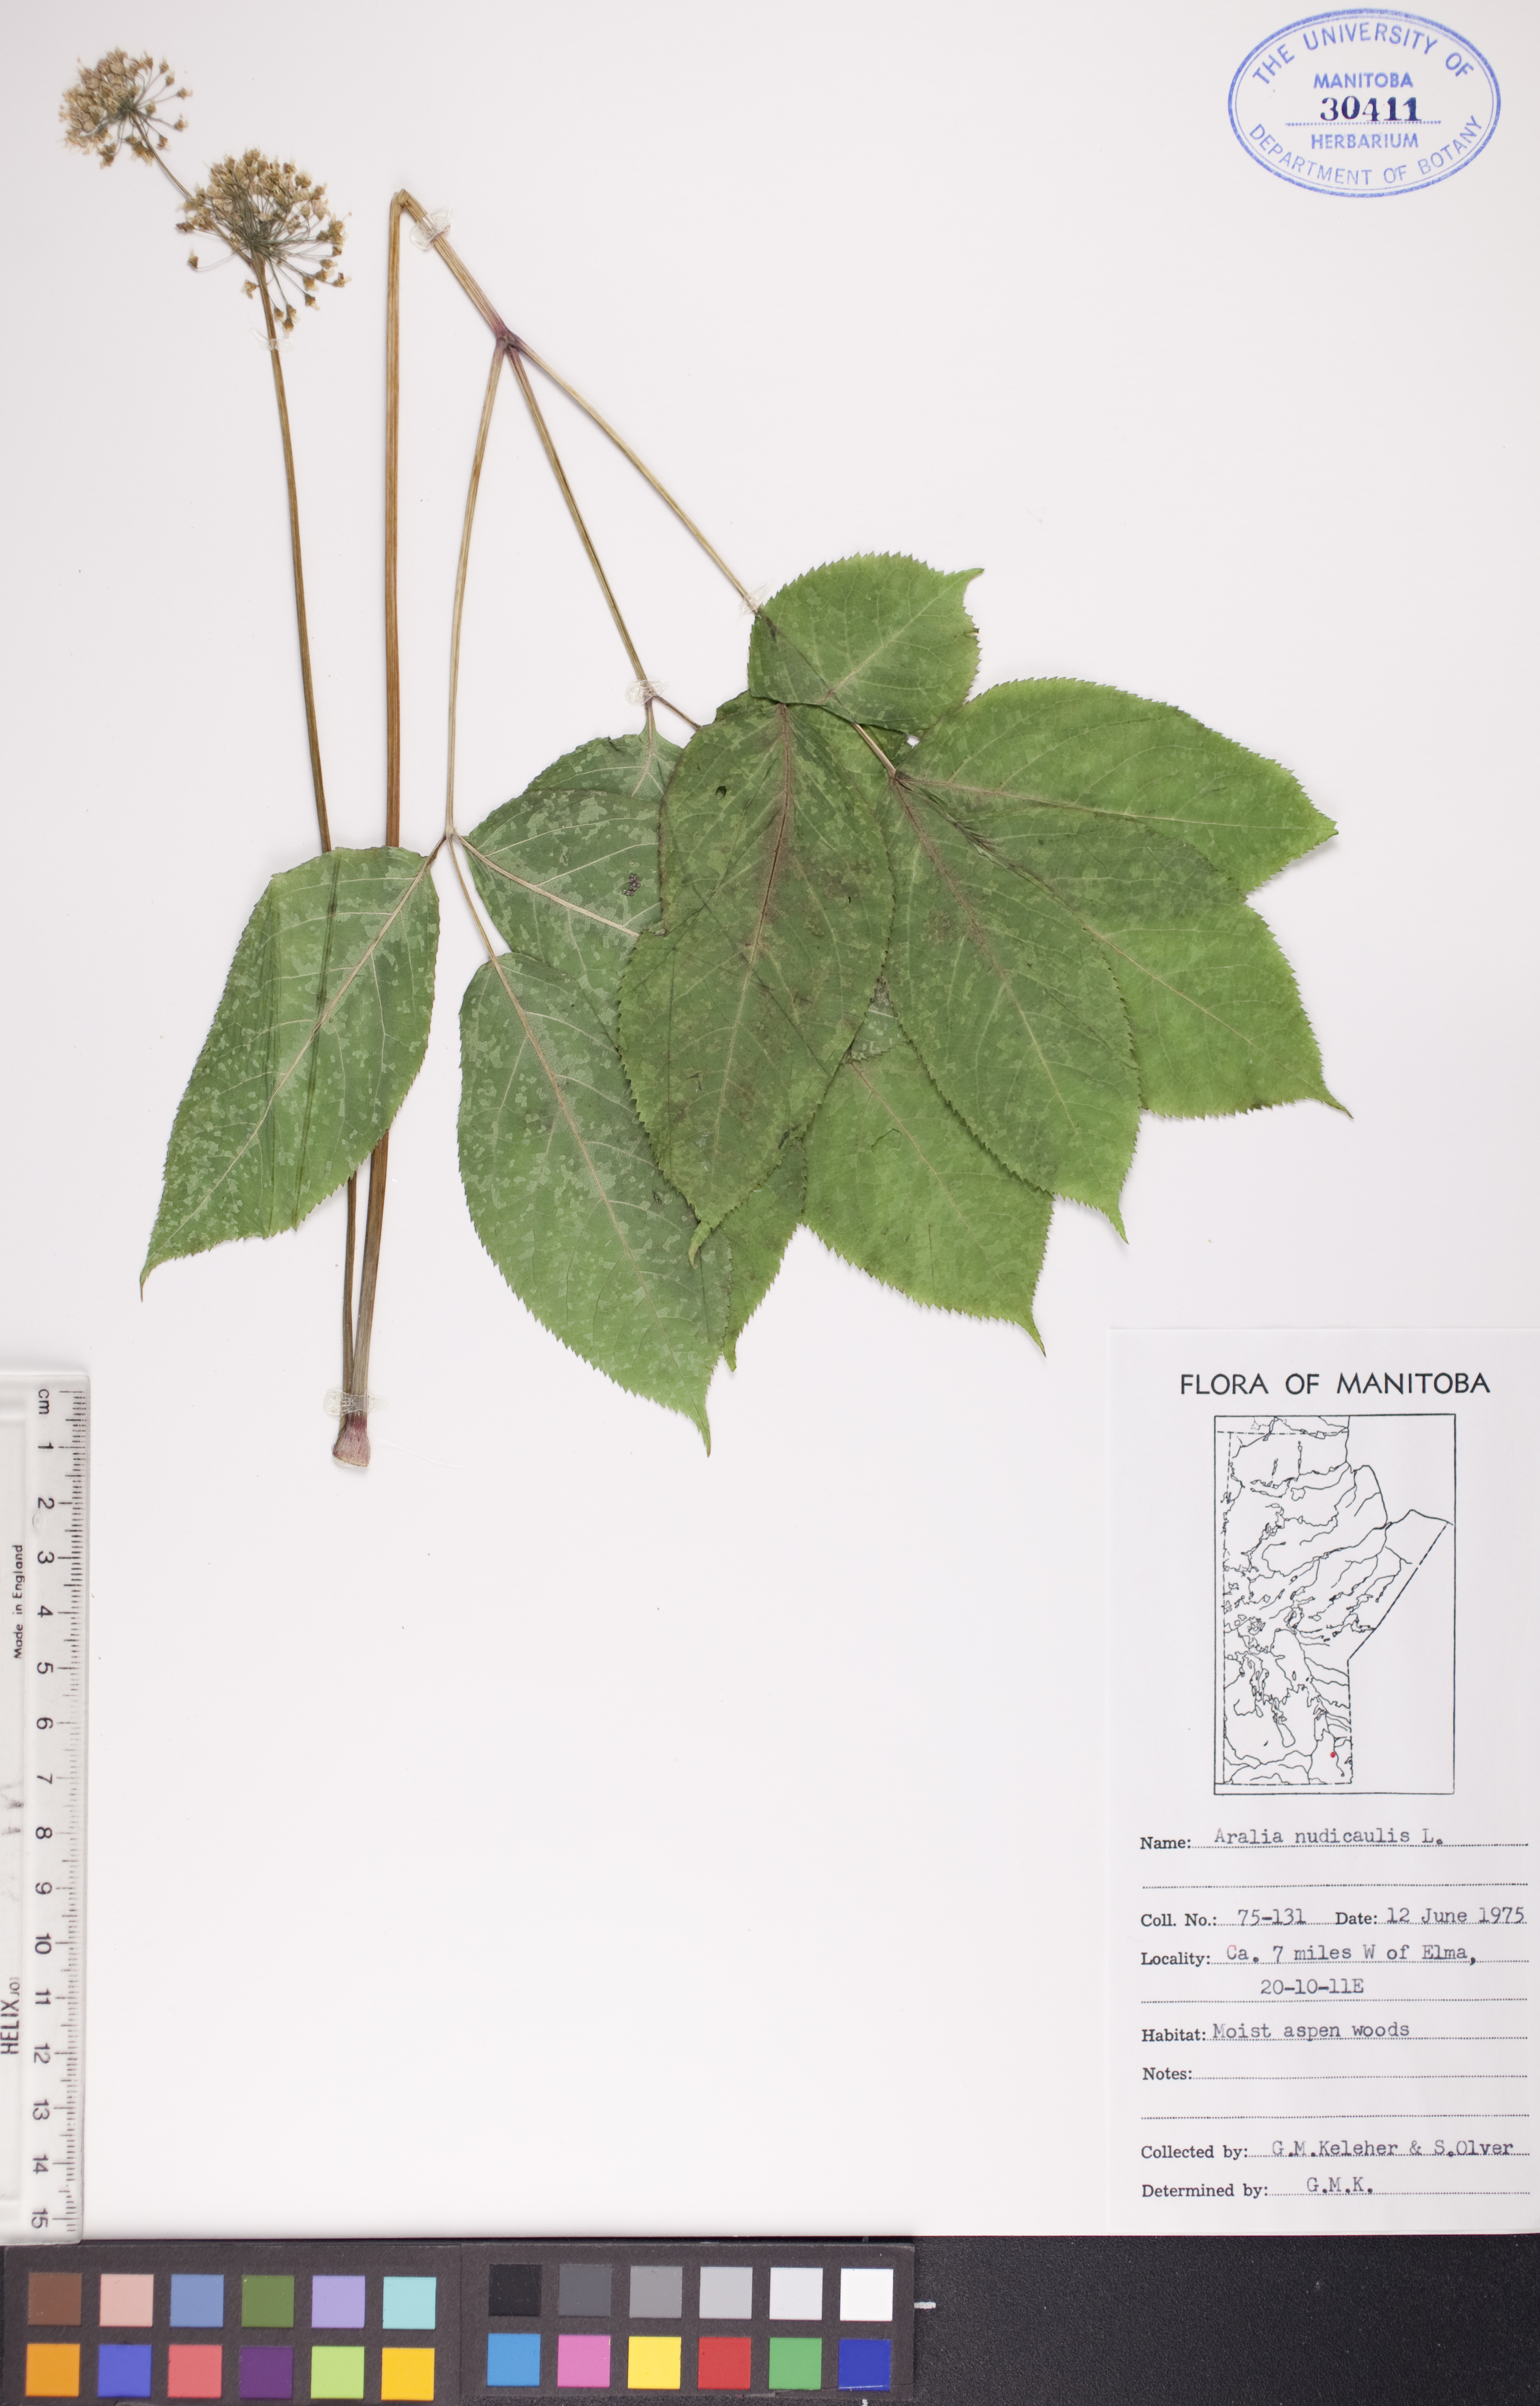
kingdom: Plantae
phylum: Tracheophyta
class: Magnoliopsida
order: Apiales
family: Araliaceae
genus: Aralia
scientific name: Aralia nudicaulis
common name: Wild sarsaparilla
